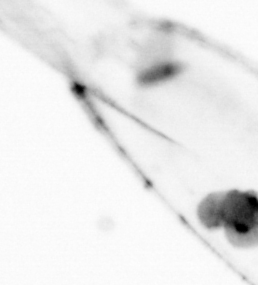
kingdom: Animalia
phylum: Chaetognatha
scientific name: Chaetognatha
